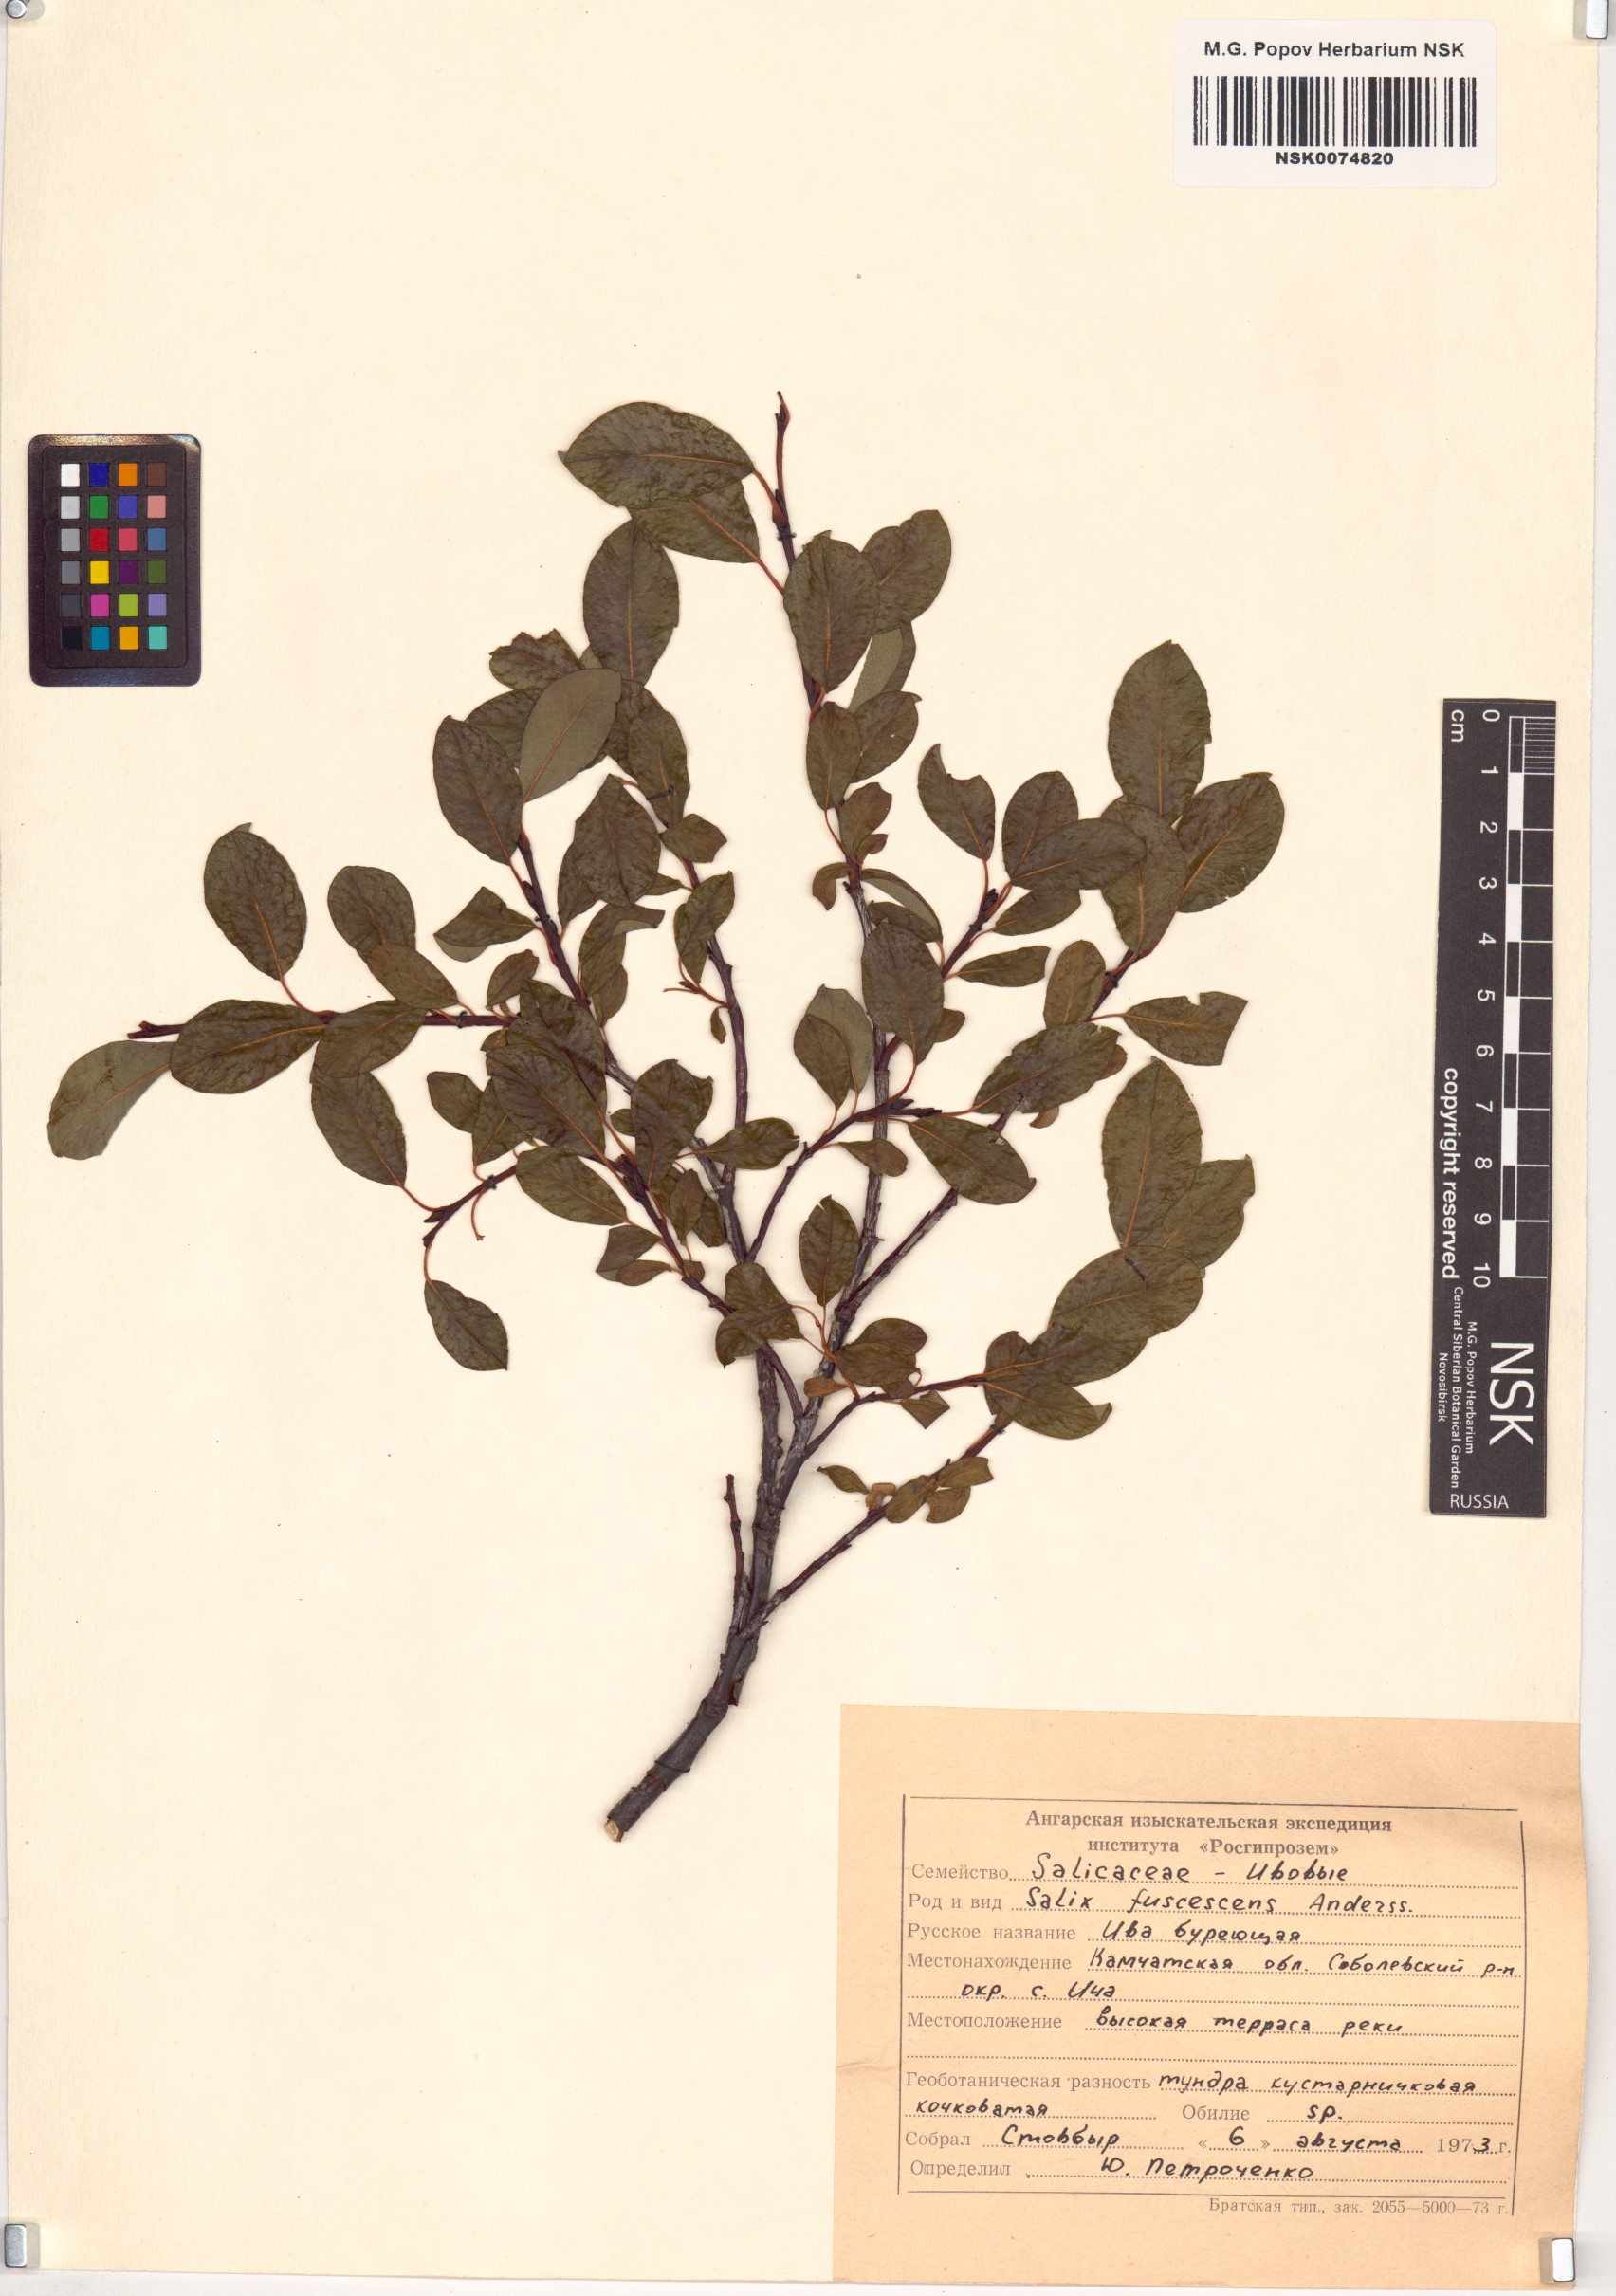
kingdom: Plantae
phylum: Tracheophyta
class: Magnoliopsida
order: Malpighiales
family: Salicaceae
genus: Salix
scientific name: Salix fuscescens
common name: Brownish willow
